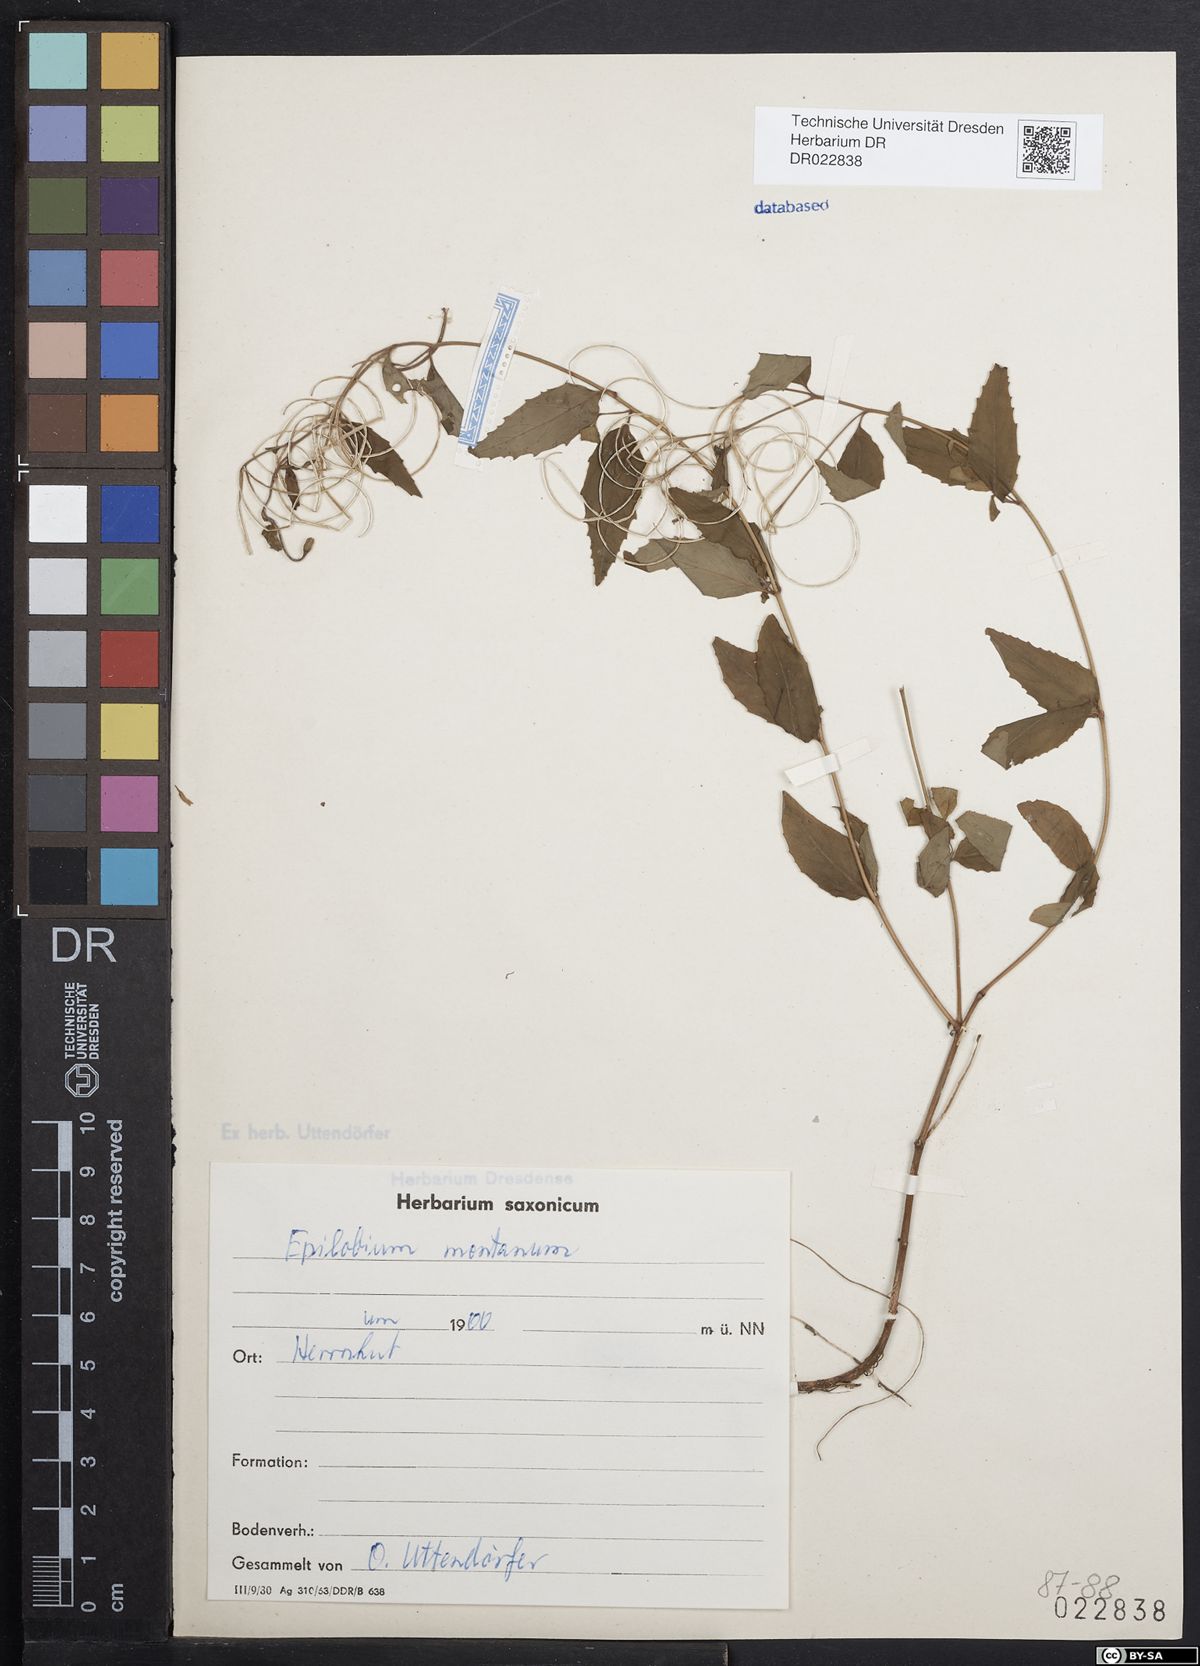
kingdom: Plantae
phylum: Tracheophyta
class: Magnoliopsida
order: Myrtales
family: Onagraceae
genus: Epilobium
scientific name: Epilobium montanum
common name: Broad-leaved willowherb
